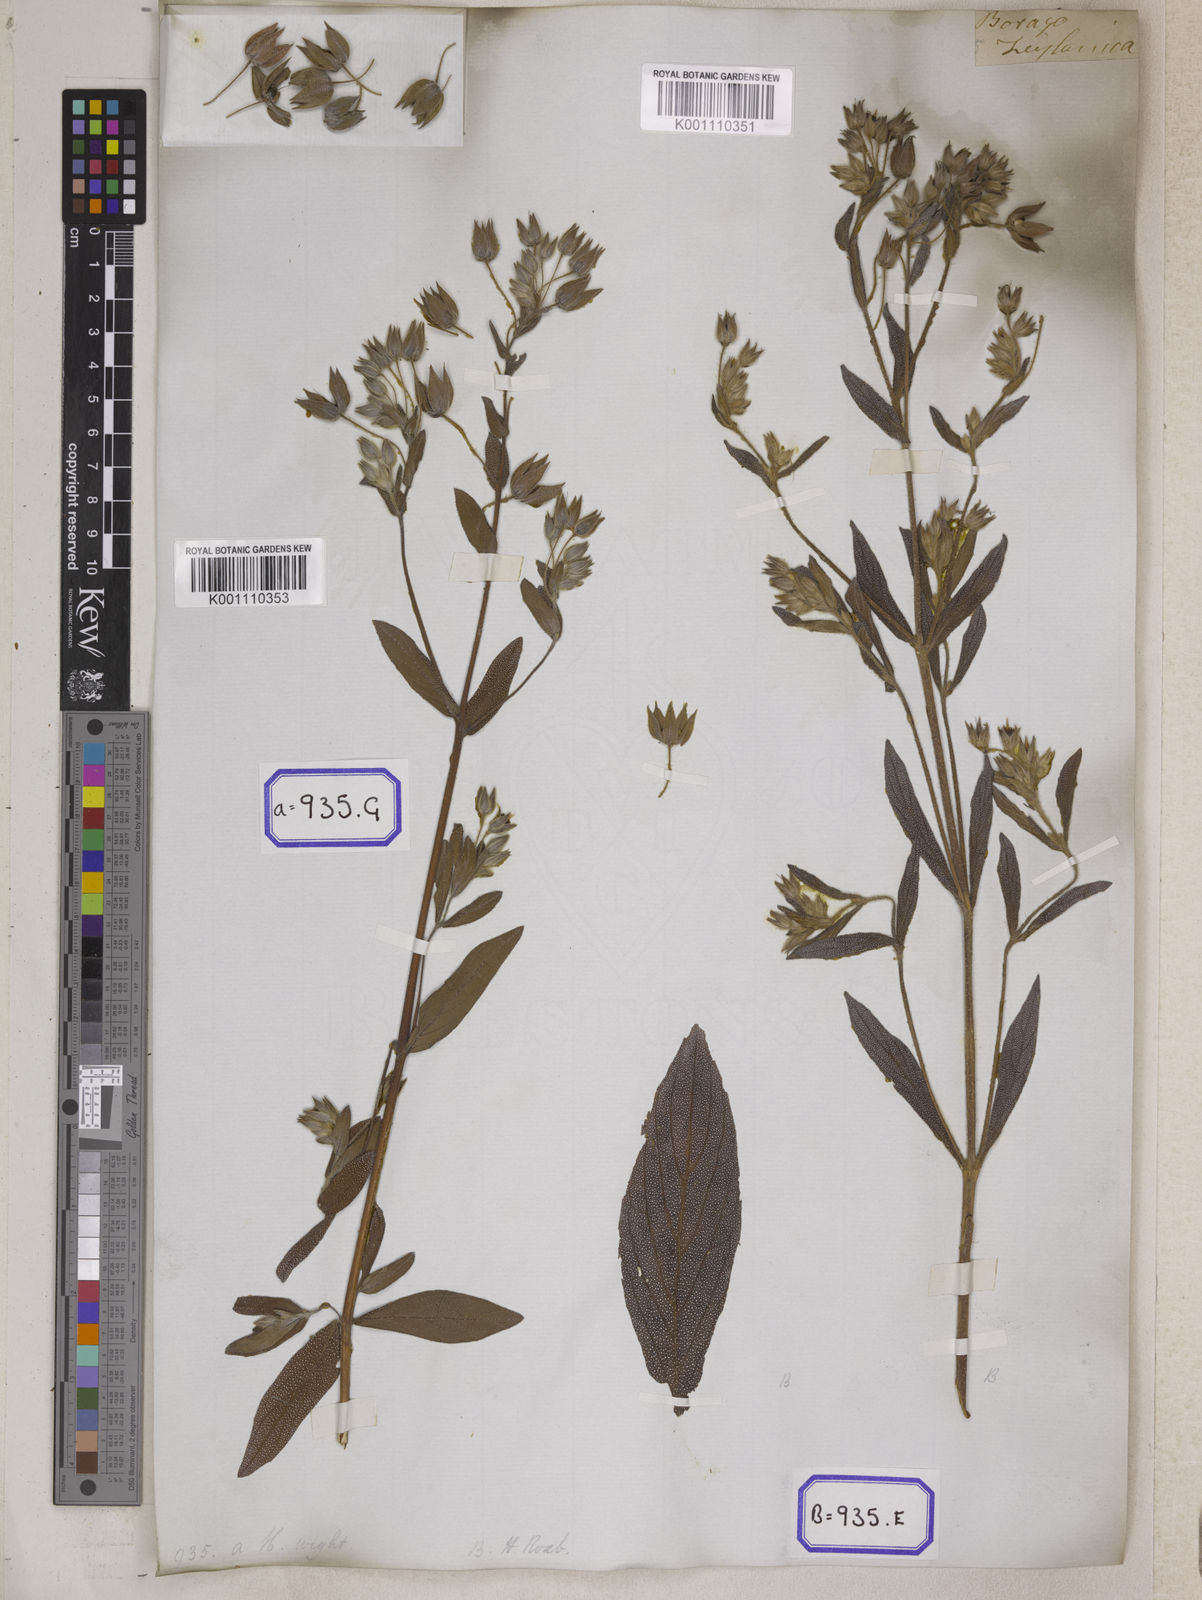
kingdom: Plantae
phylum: Tracheophyta
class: Magnoliopsida
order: Boraginales
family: Boraginaceae
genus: Trichodesma
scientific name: Trichodesma zeylanicum
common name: Camelbush
